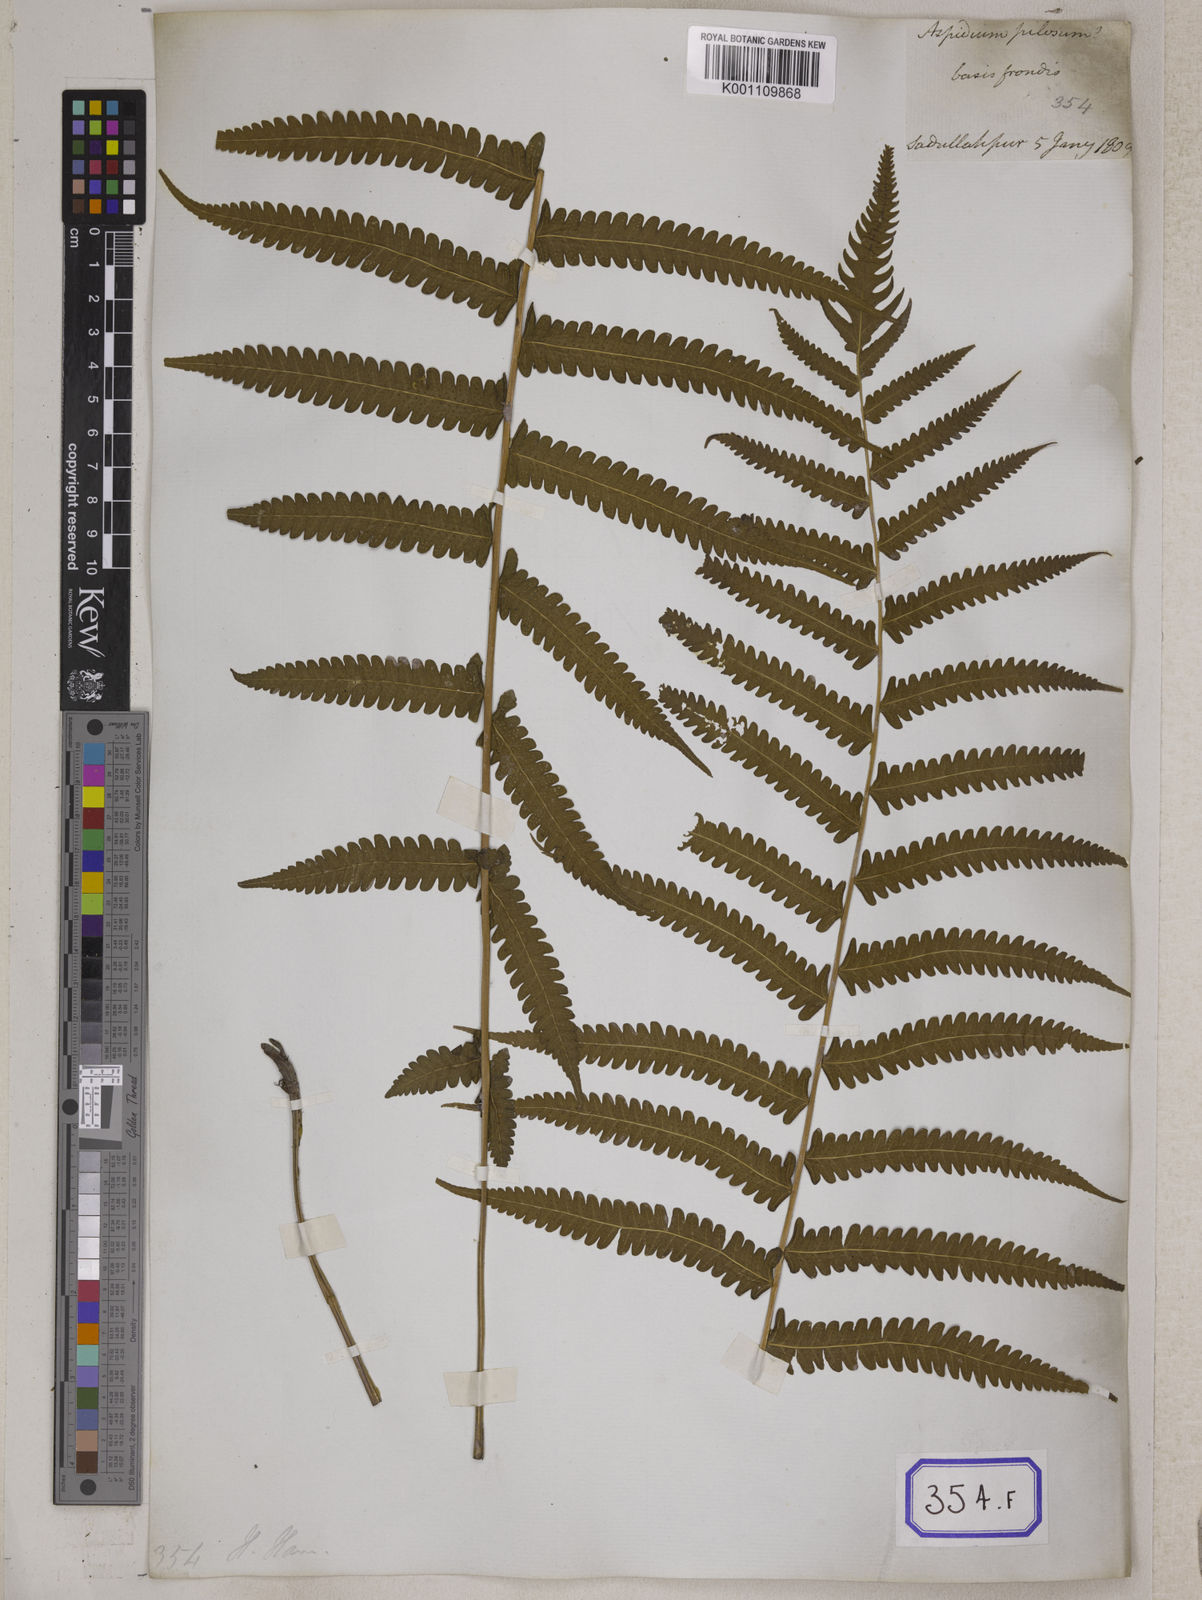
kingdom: Plantae
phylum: Tracheophyta
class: Polypodiopsida
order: Polypodiales
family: Tectariaceae
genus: Tectaria
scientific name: Tectaria Aspidium spec
